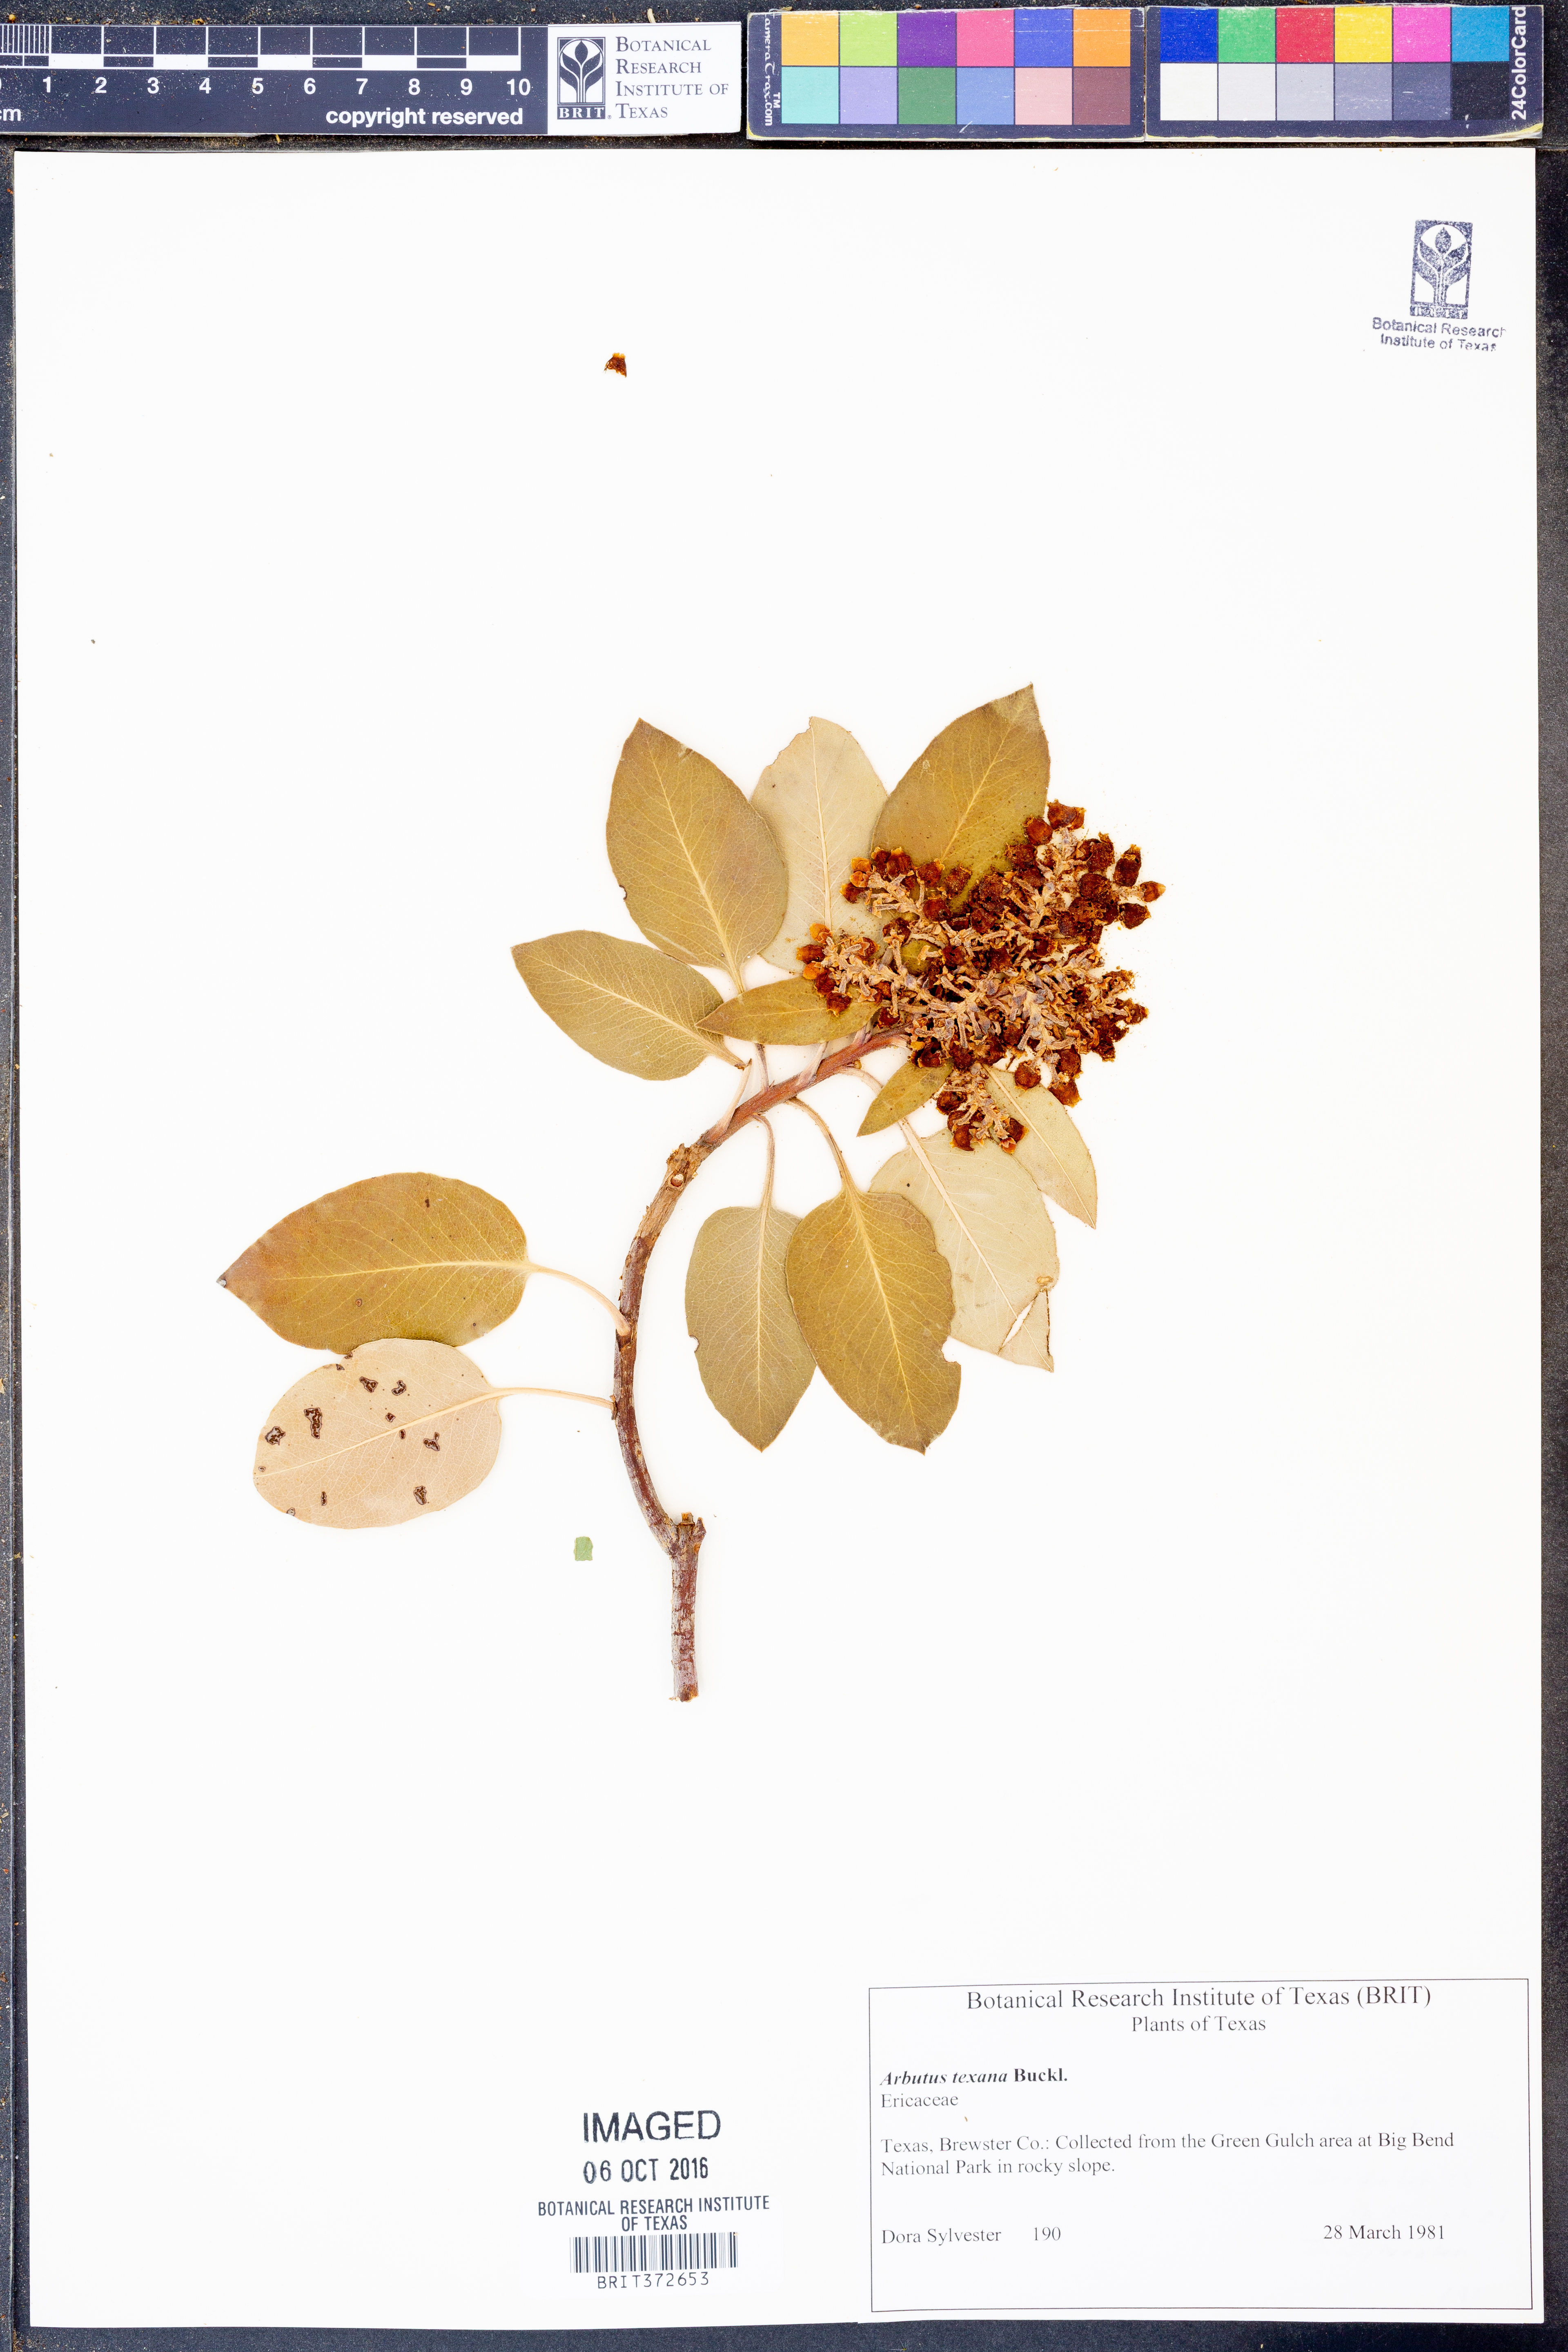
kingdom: Plantae
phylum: Tracheophyta
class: Magnoliopsida
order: Ericales
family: Ericaceae
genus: Arbutus
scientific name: Arbutus xalapensis
